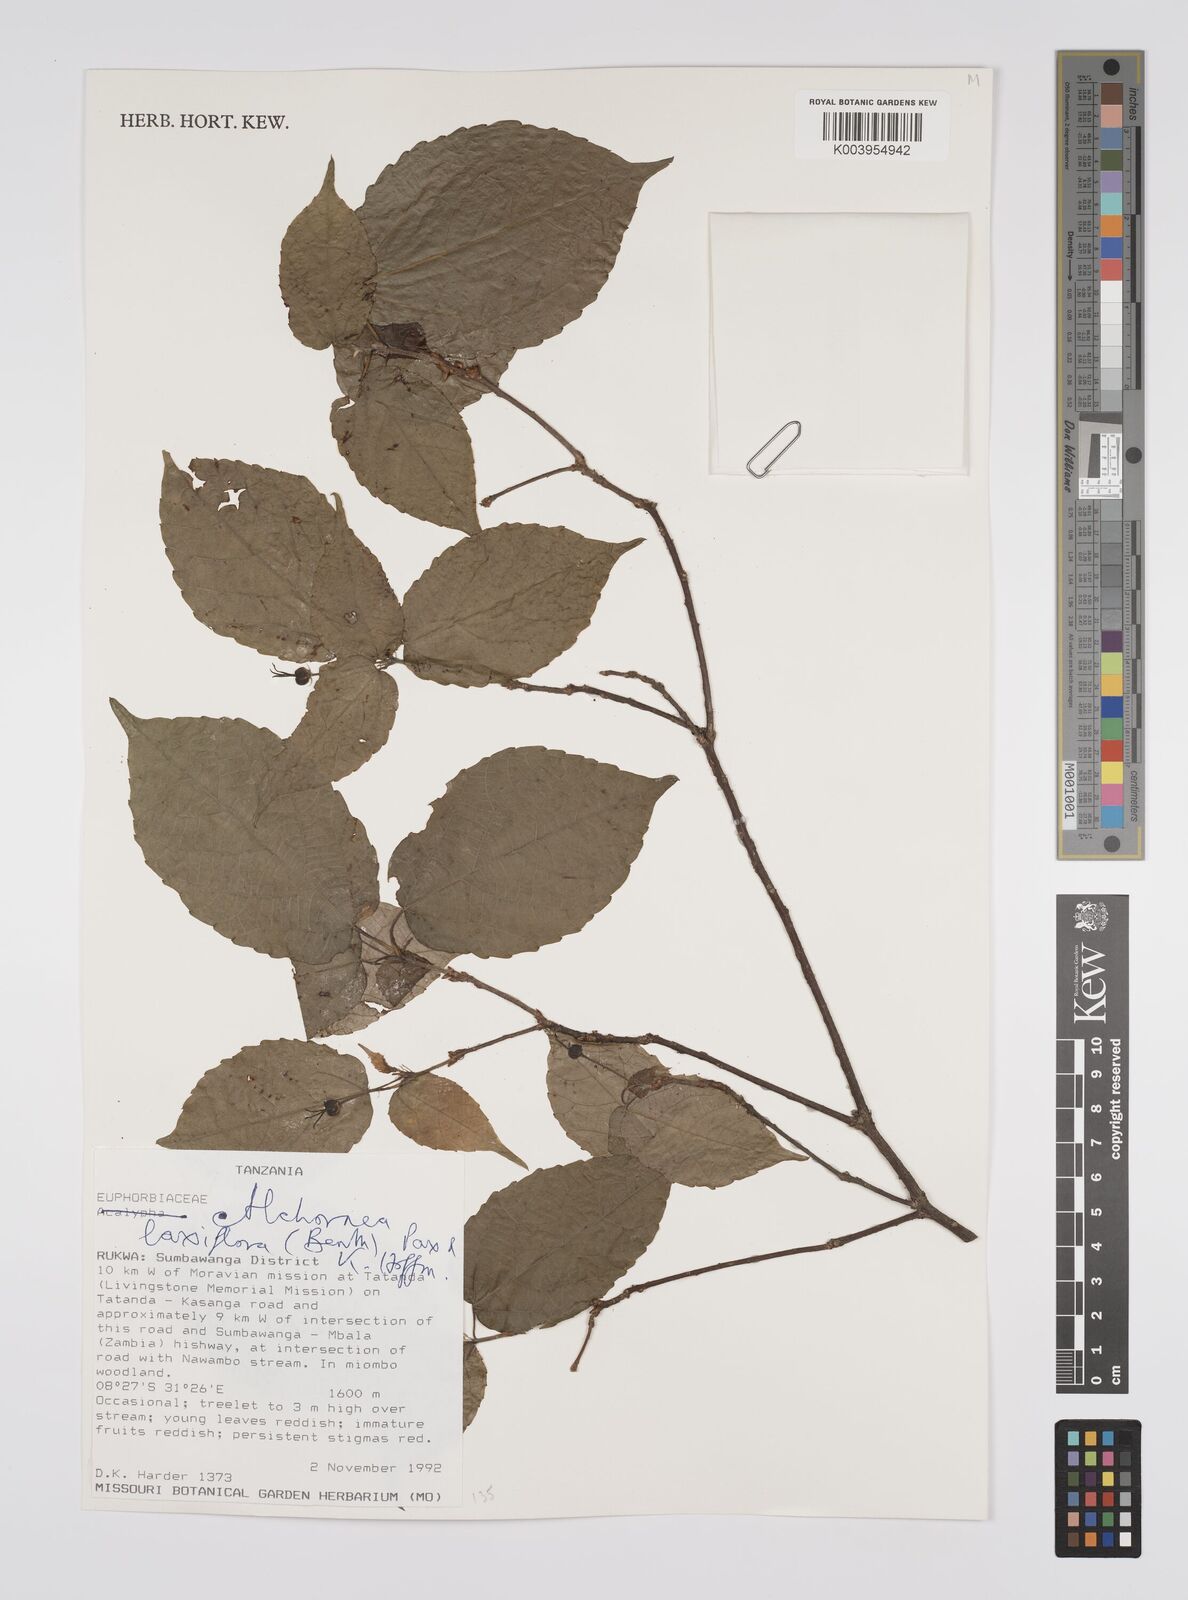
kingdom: Plantae
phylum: Tracheophyta
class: Magnoliopsida
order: Malpighiales
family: Euphorbiaceae
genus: Alchornea
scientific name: Alchornea laxiflora
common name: Lowveld bead-string
